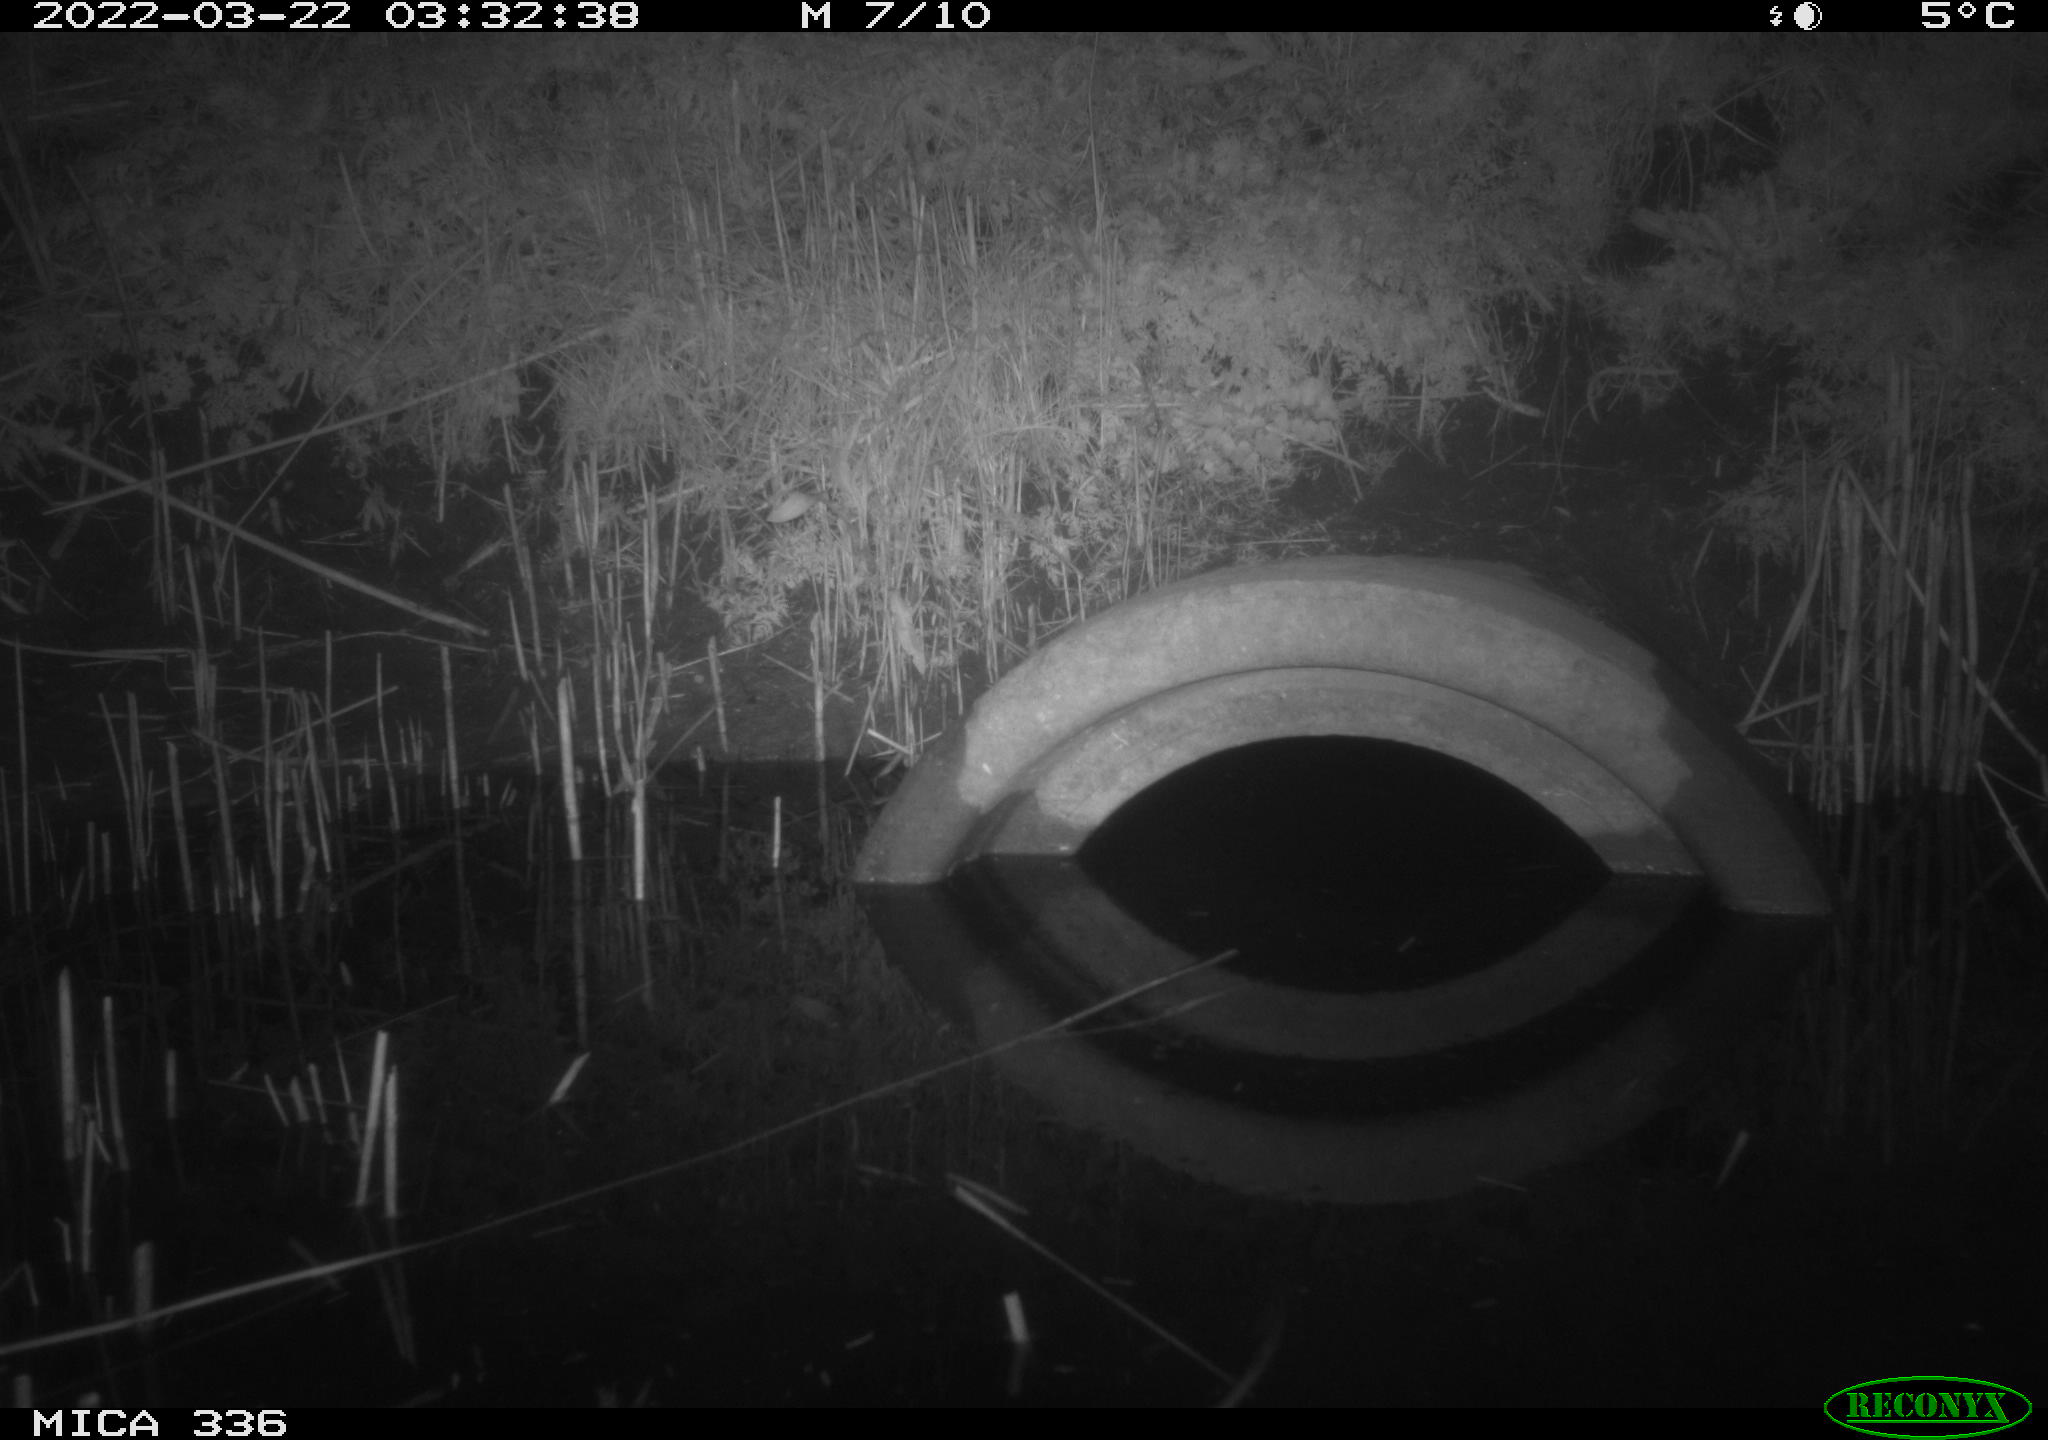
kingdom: Animalia
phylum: Chordata
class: Mammalia
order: Rodentia
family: Muridae
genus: Rattus
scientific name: Rattus norvegicus
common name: Brown rat
